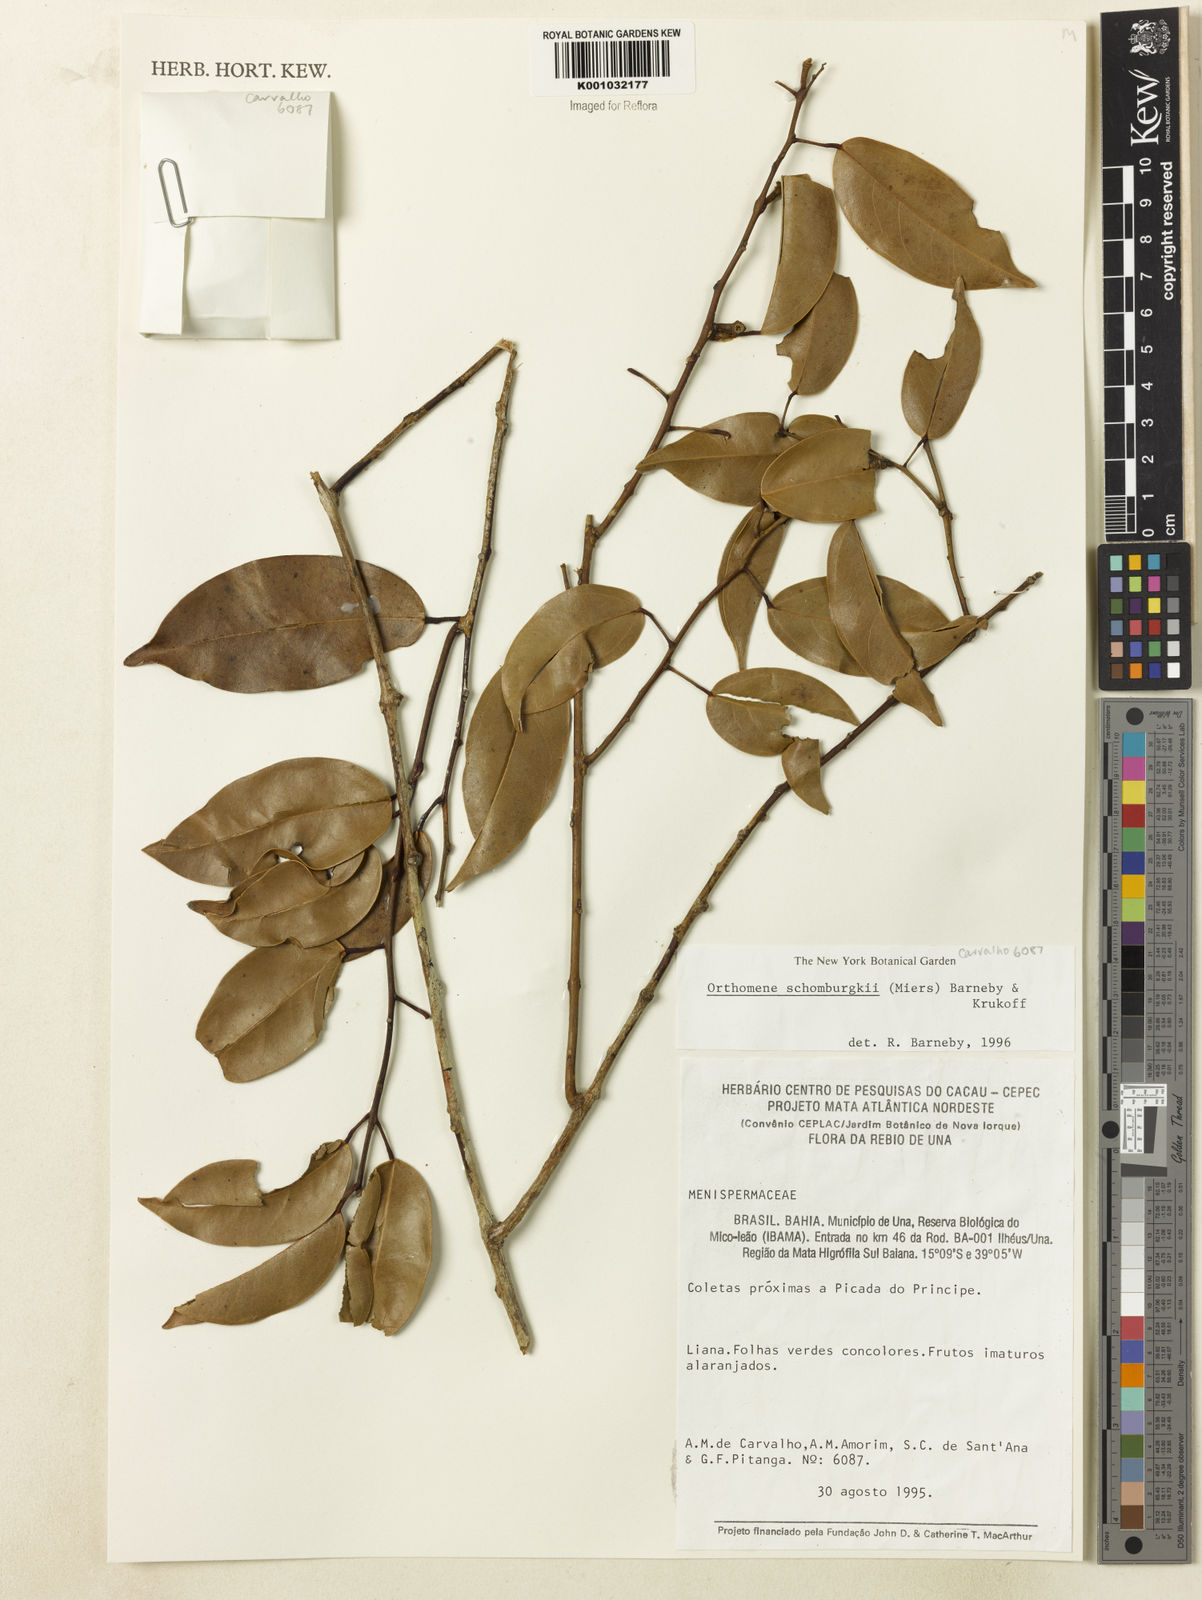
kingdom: Plantae
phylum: Tracheophyta
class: Magnoliopsida
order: Ranunculales
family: Menispermaceae
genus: Orthomene
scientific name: Orthomene schomburgkii
